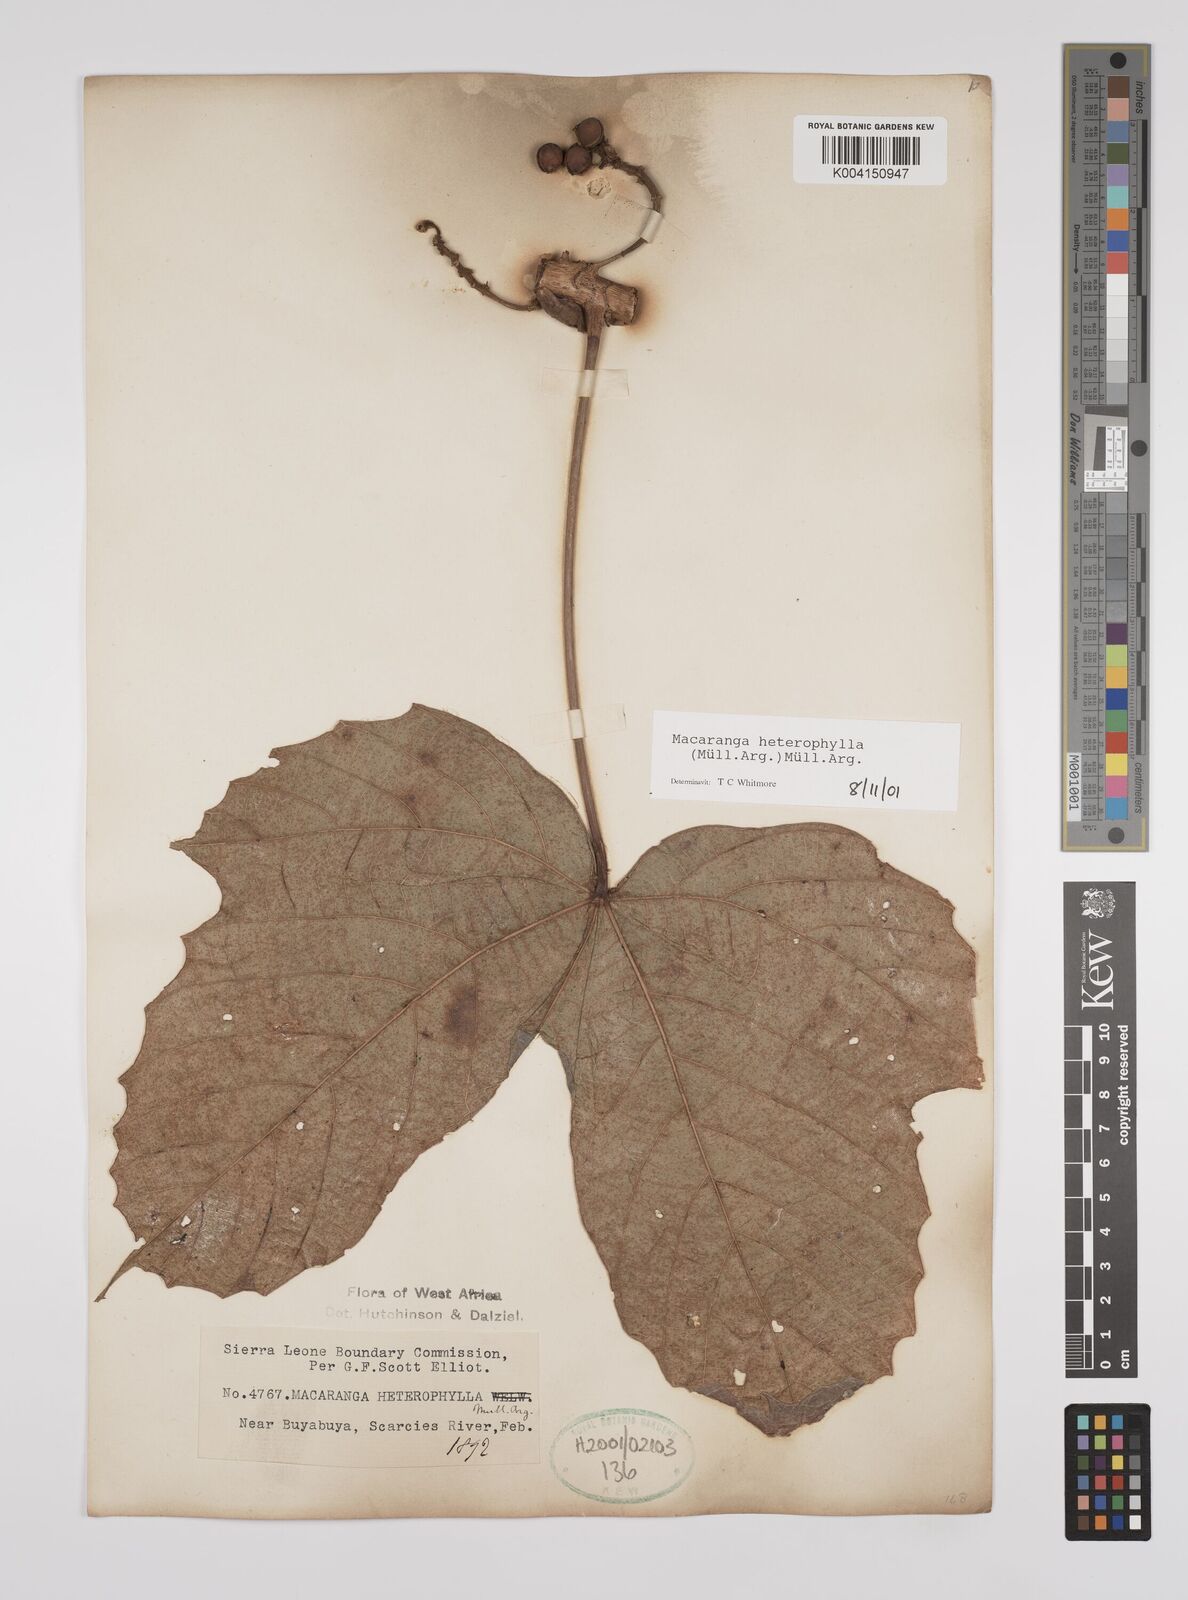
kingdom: Plantae
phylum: Tracheophyta
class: Magnoliopsida
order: Malpighiales
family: Euphorbiaceae
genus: Macaranga
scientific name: Macaranga heterophylla
